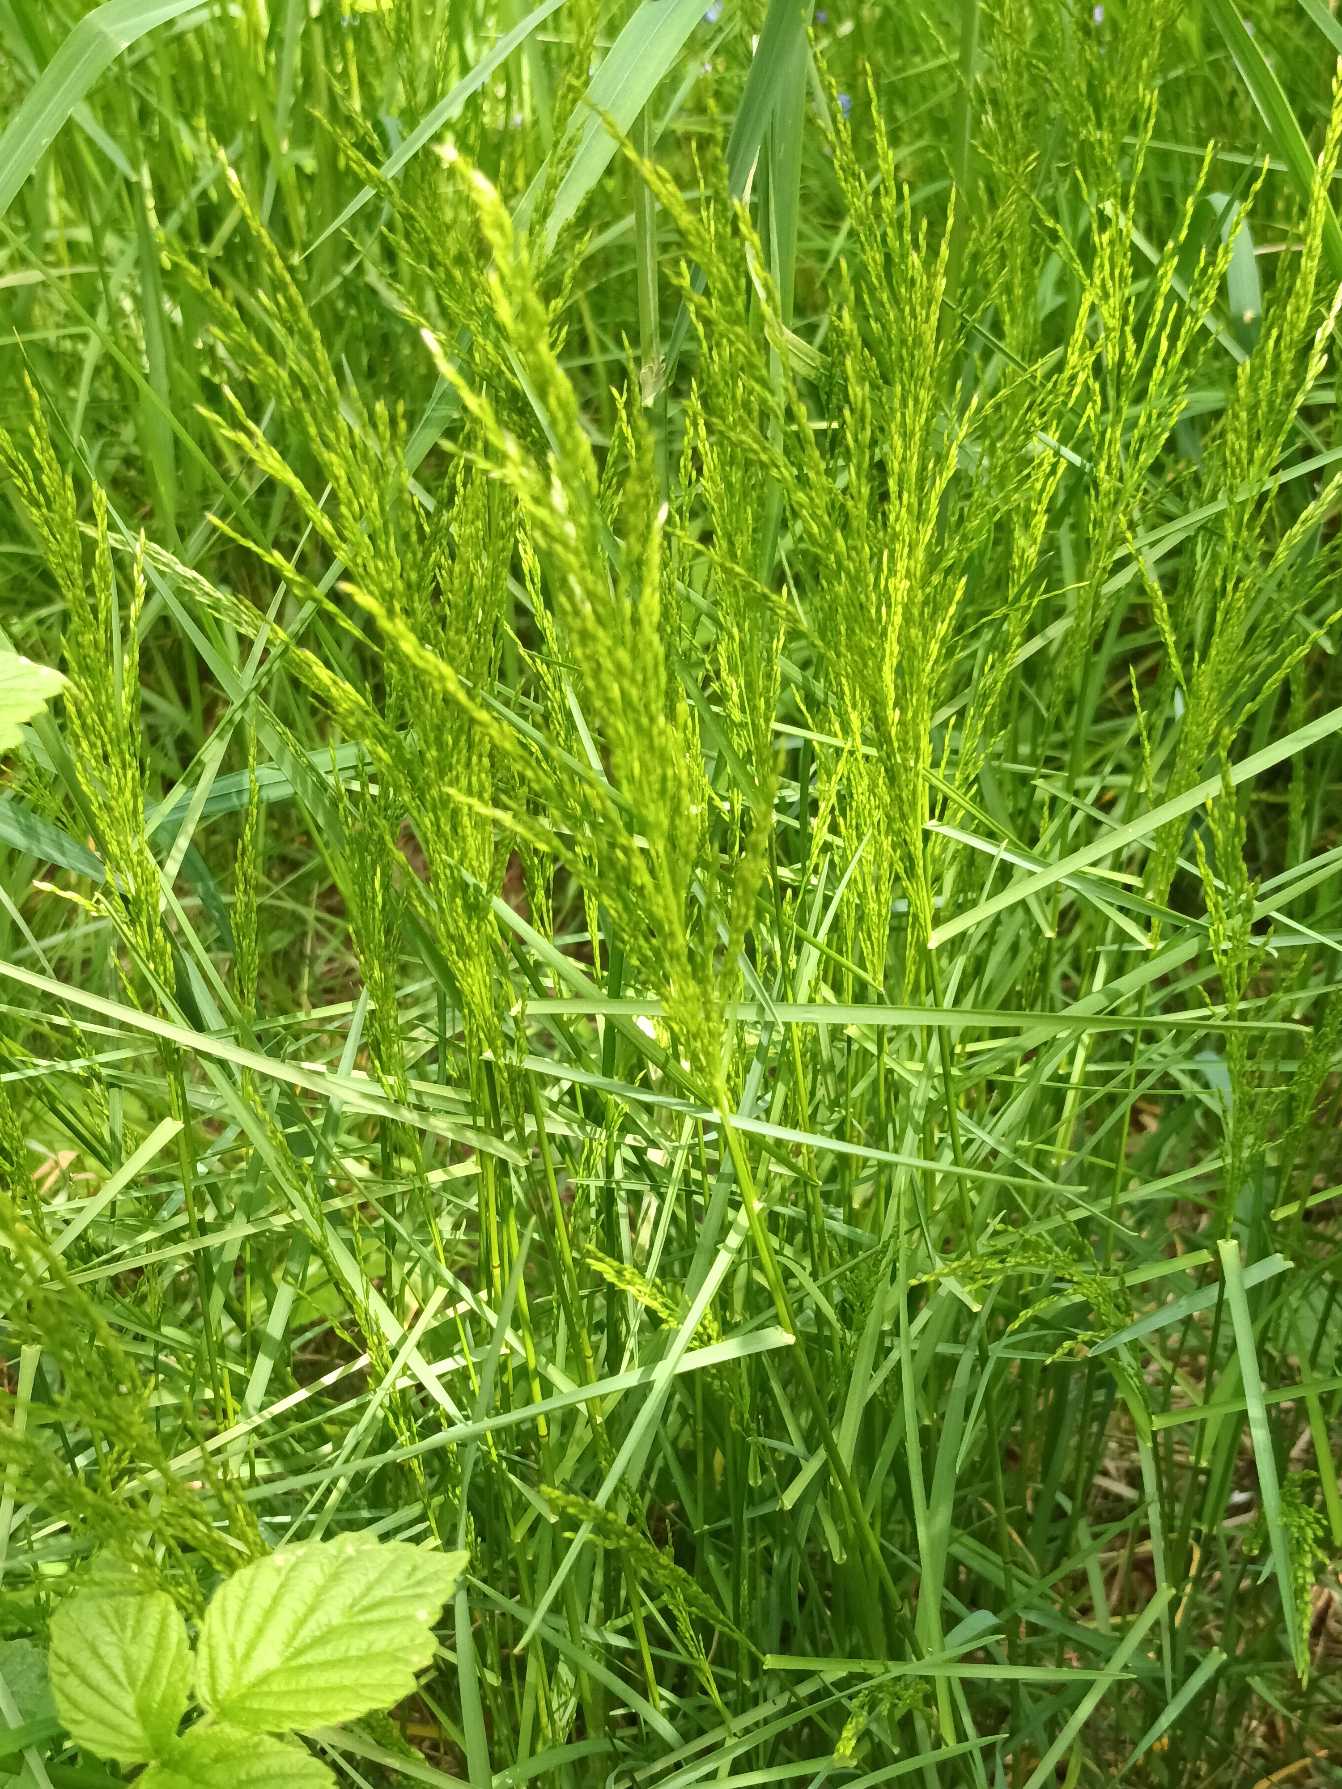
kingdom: Plantae
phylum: Tracheophyta
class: Liliopsida
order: Poales
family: Poaceae
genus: Poa
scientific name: Poa nemoralis
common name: Lund-rapgræs
